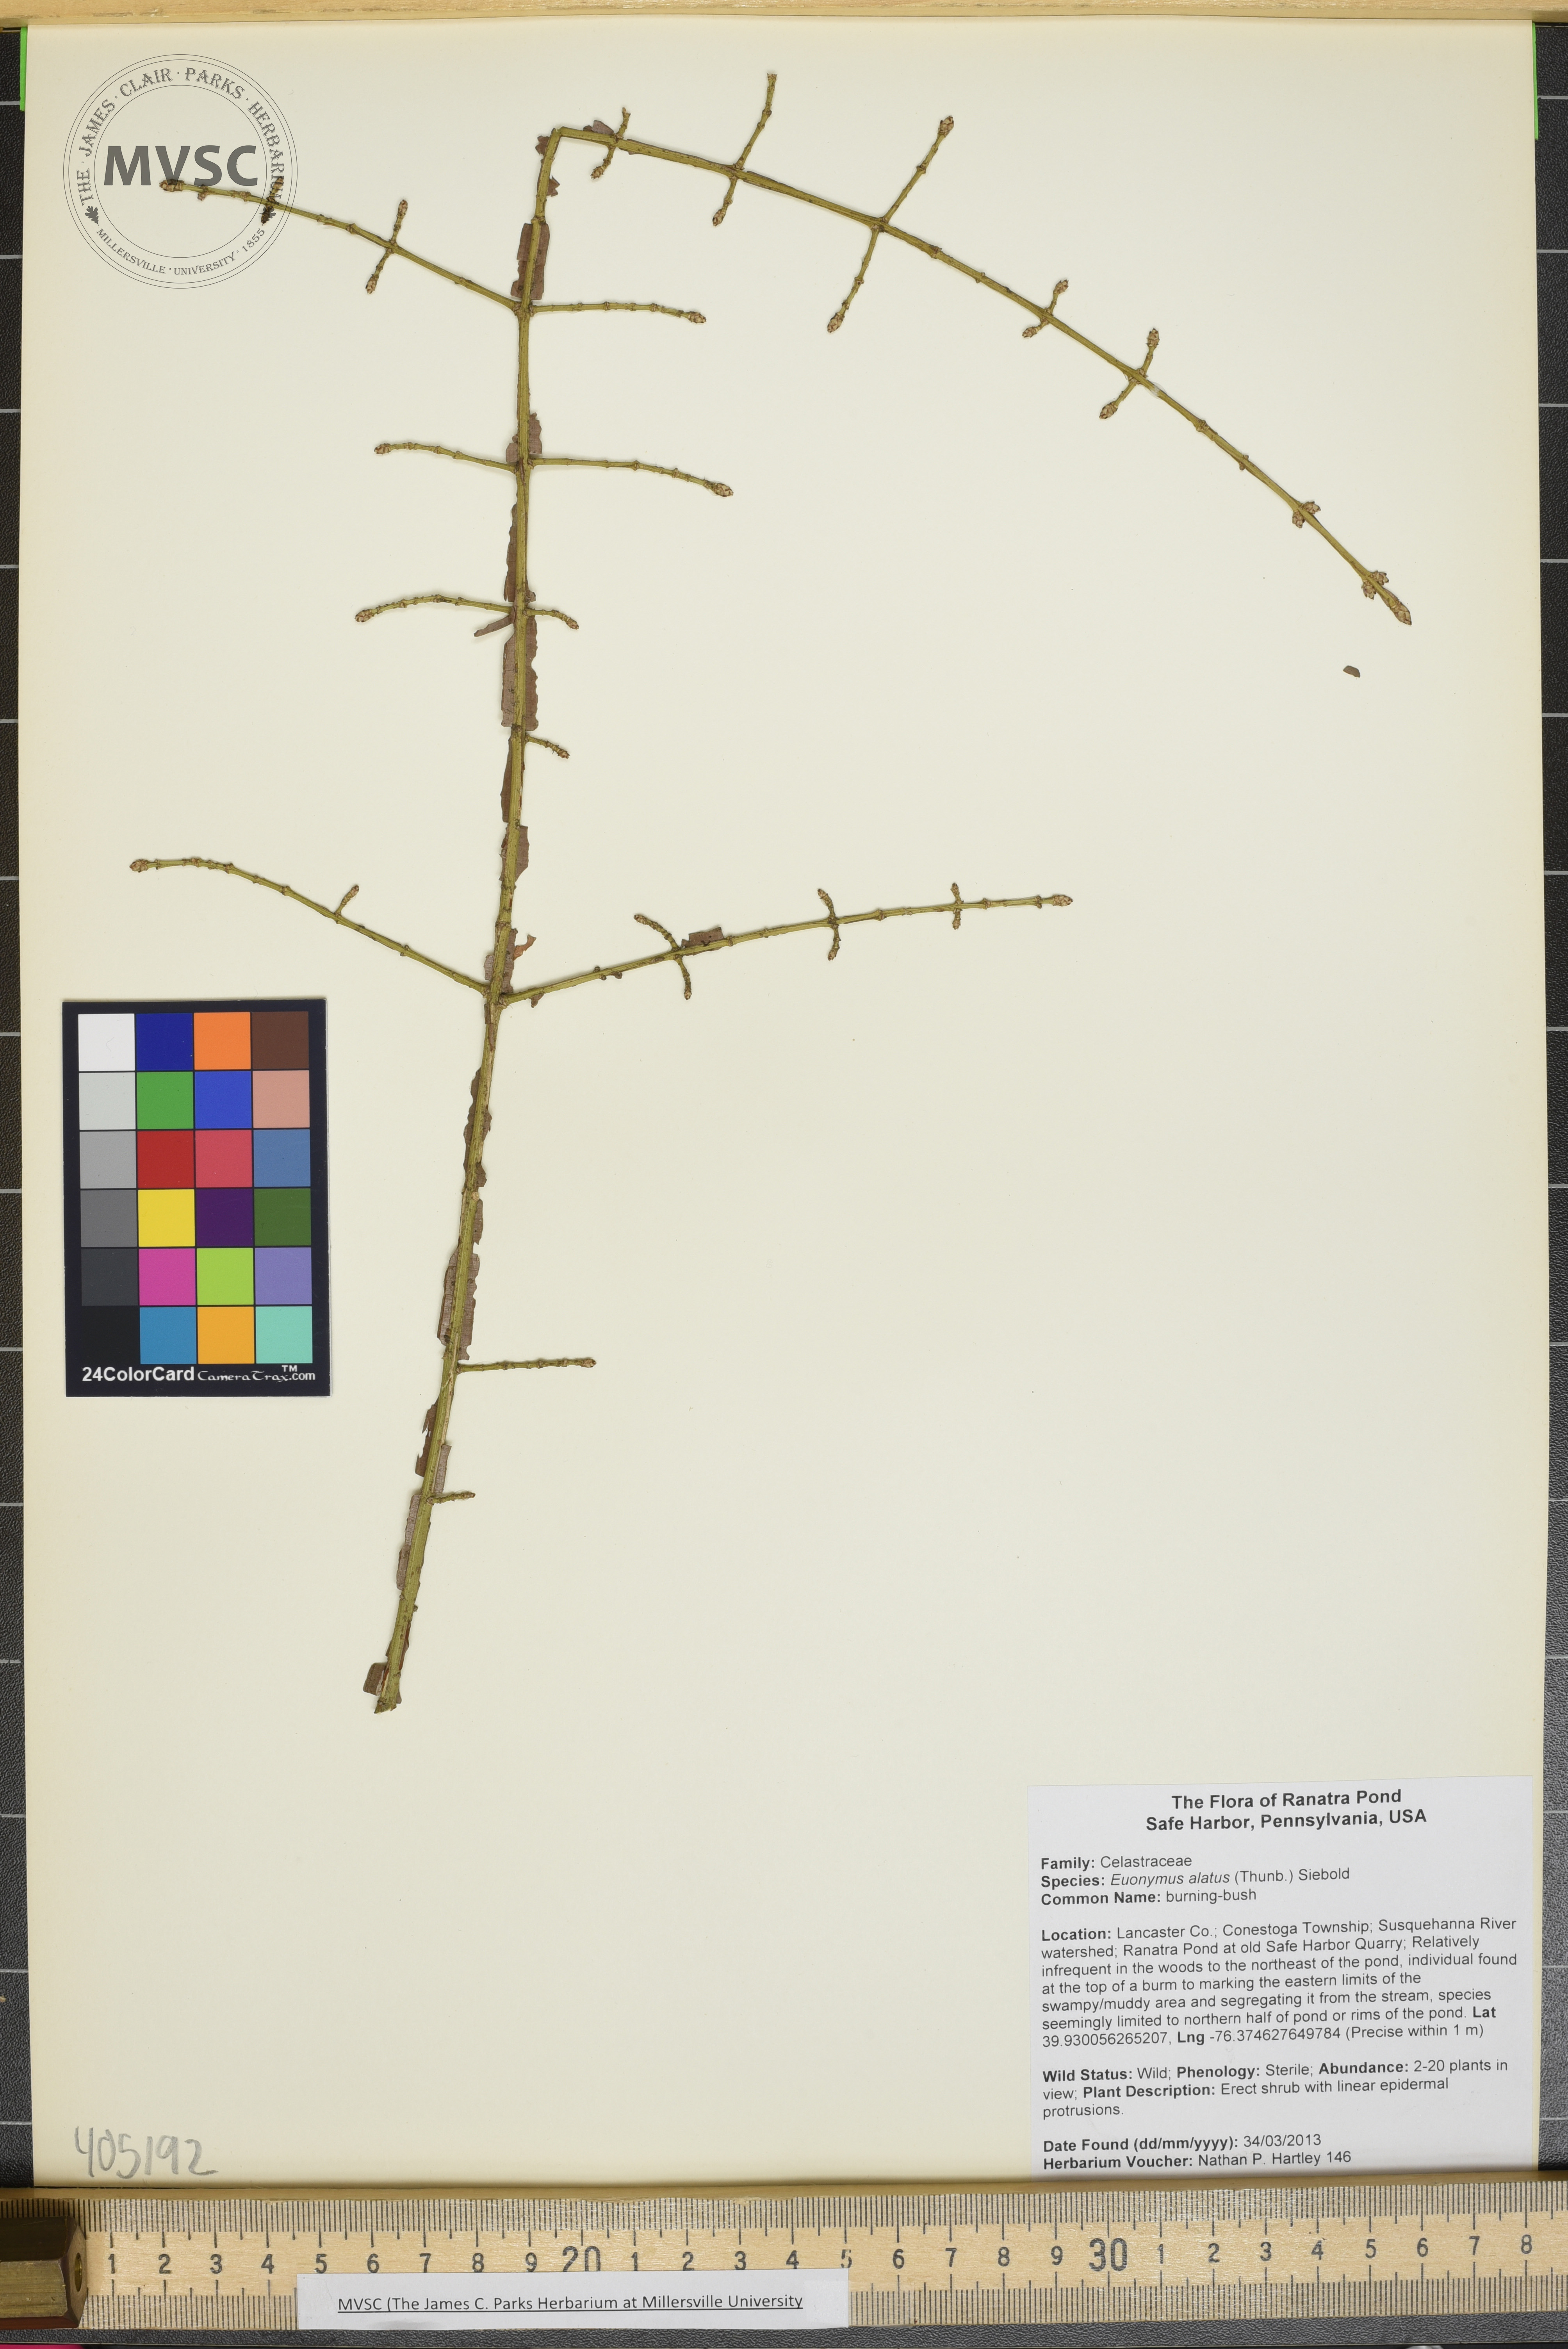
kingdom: Plantae
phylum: Tracheophyta
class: Magnoliopsida
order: Celastrales
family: Celastraceae
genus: Euonymus
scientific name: Euonymus alatus
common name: burning-bush
